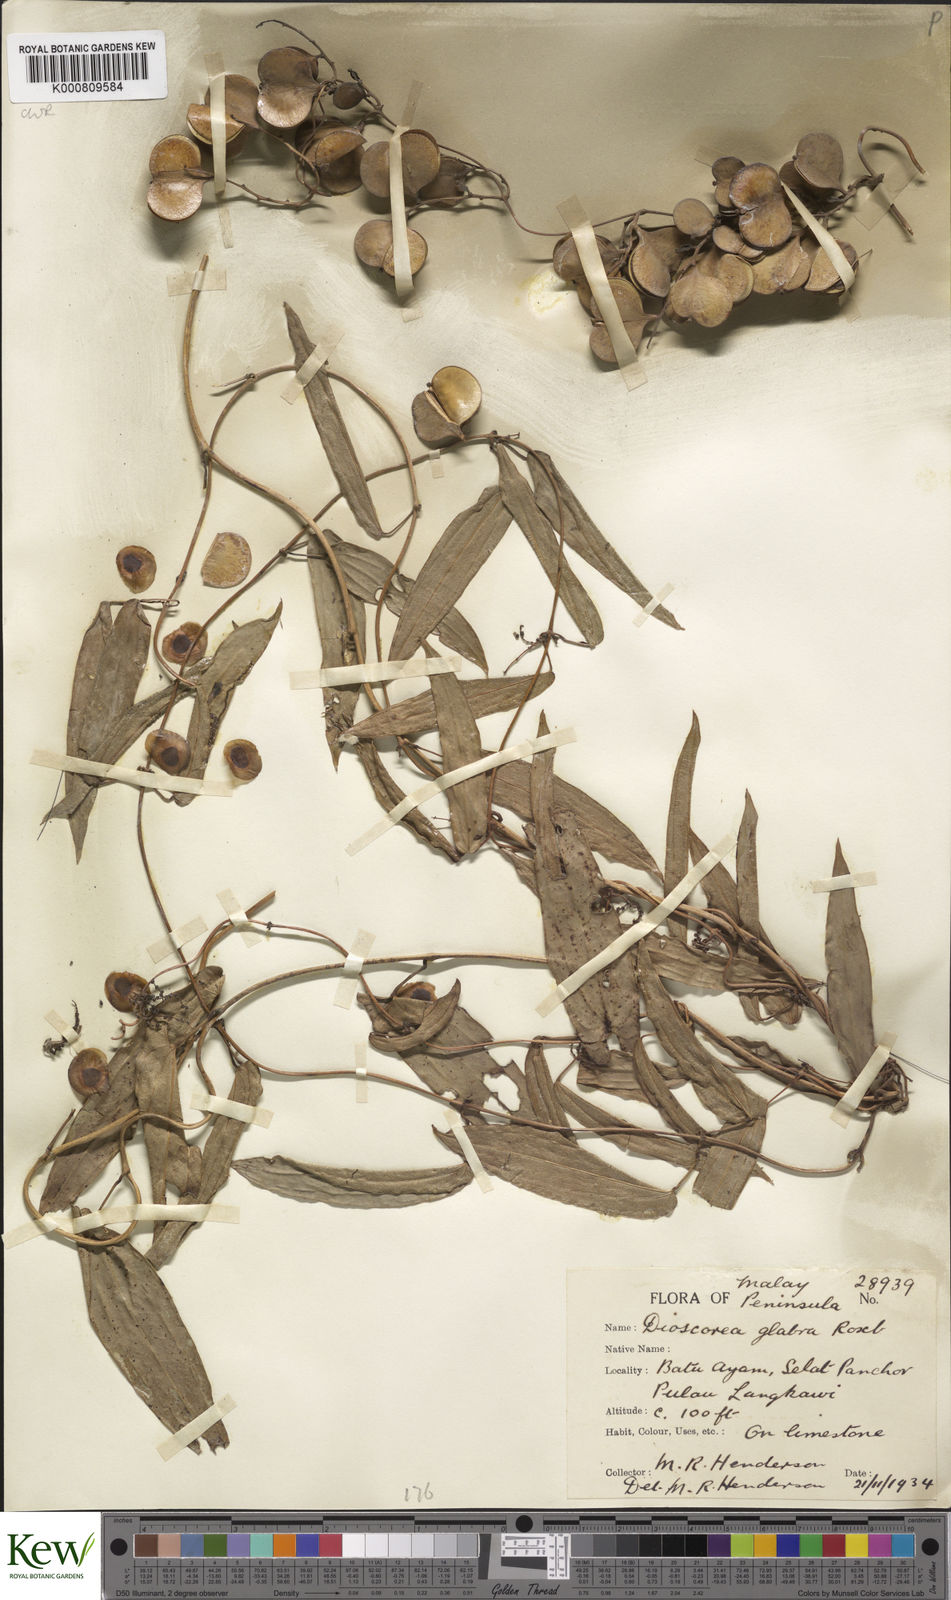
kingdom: Plantae
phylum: Tracheophyta
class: Liliopsida
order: Dioscoreales
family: Dioscoreaceae
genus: Dioscorea
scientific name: Dioscorea glabra
